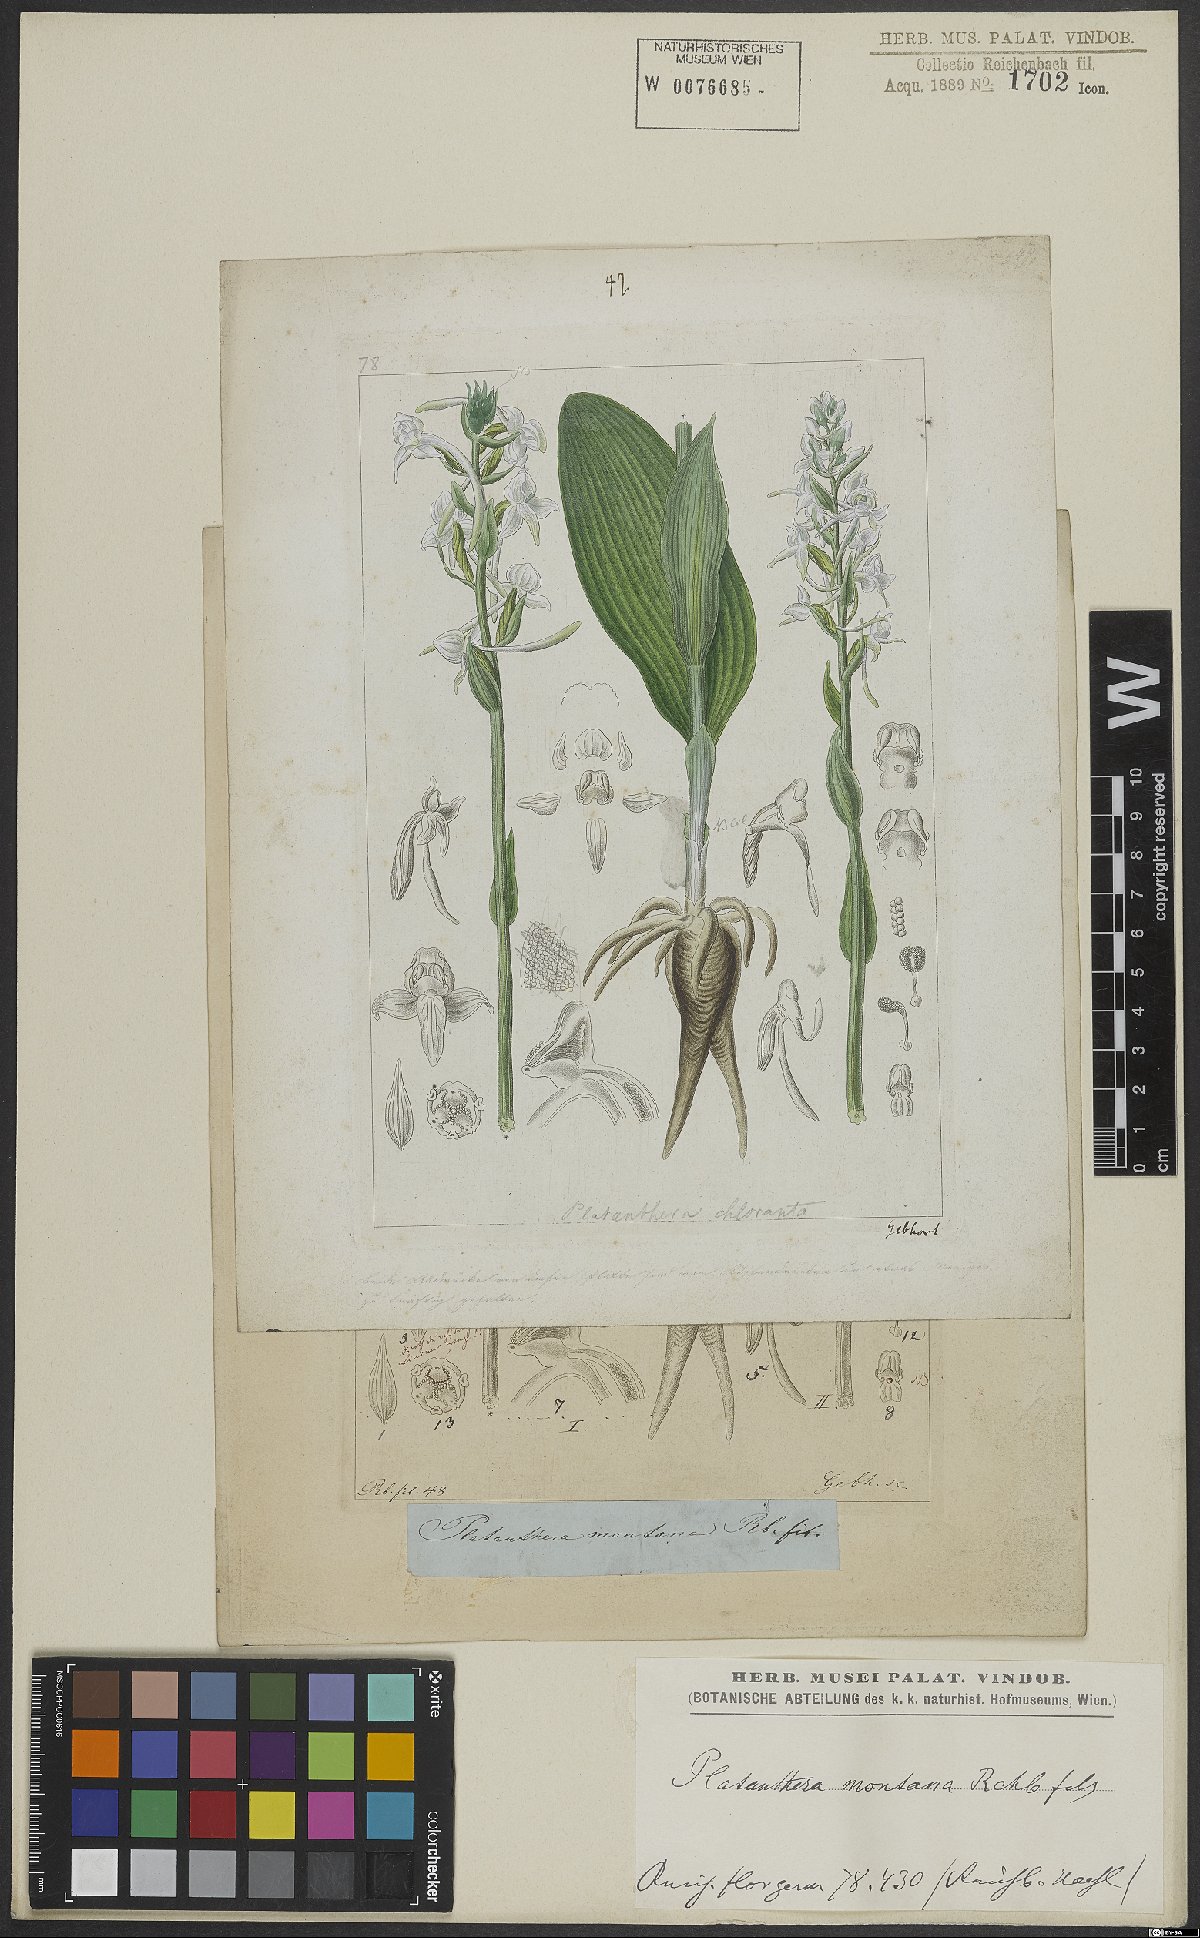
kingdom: Plantae
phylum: Tracheophyta
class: Liliopsida
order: Asparagales
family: Orchidaceae
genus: Platanthera
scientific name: Platanthera chlorantha
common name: Greater butterfly-orchid
